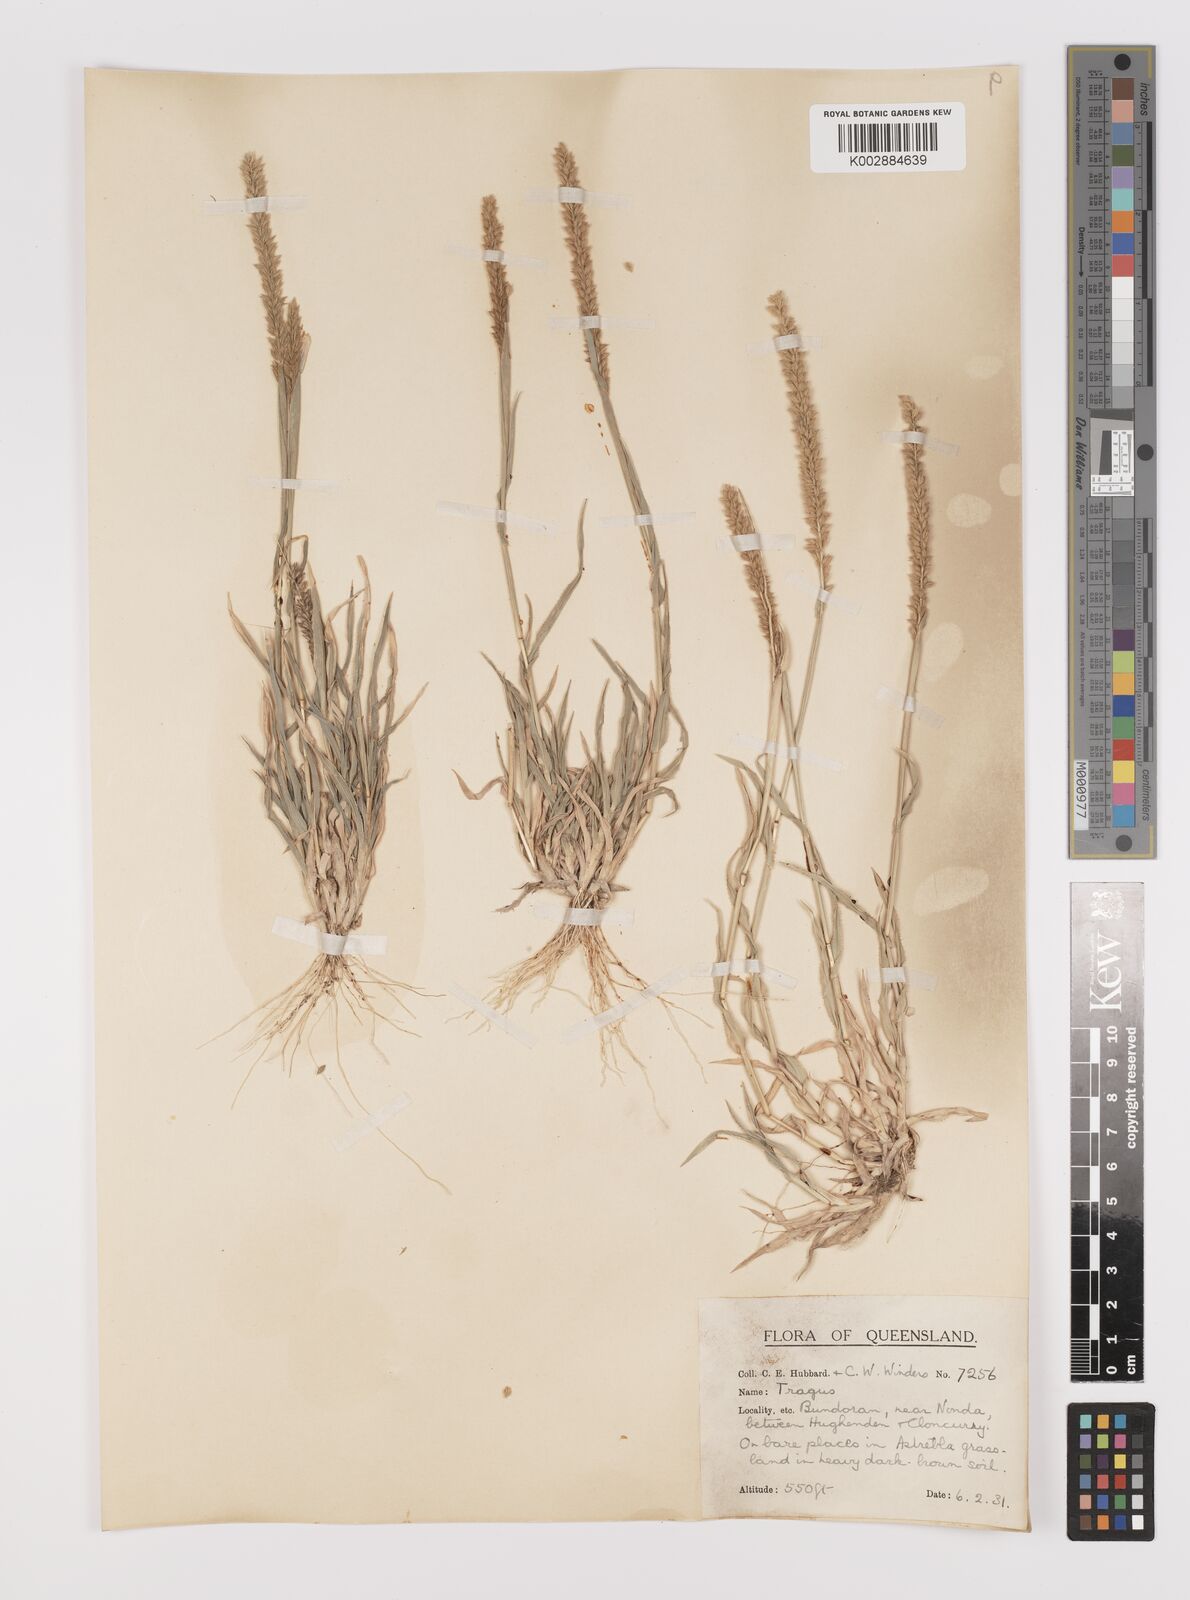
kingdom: Plantae
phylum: Tracheophyta
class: Liliopsida
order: Poales
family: Poaceae
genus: Tragus
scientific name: Tragus australianus
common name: Australian bur-grass
